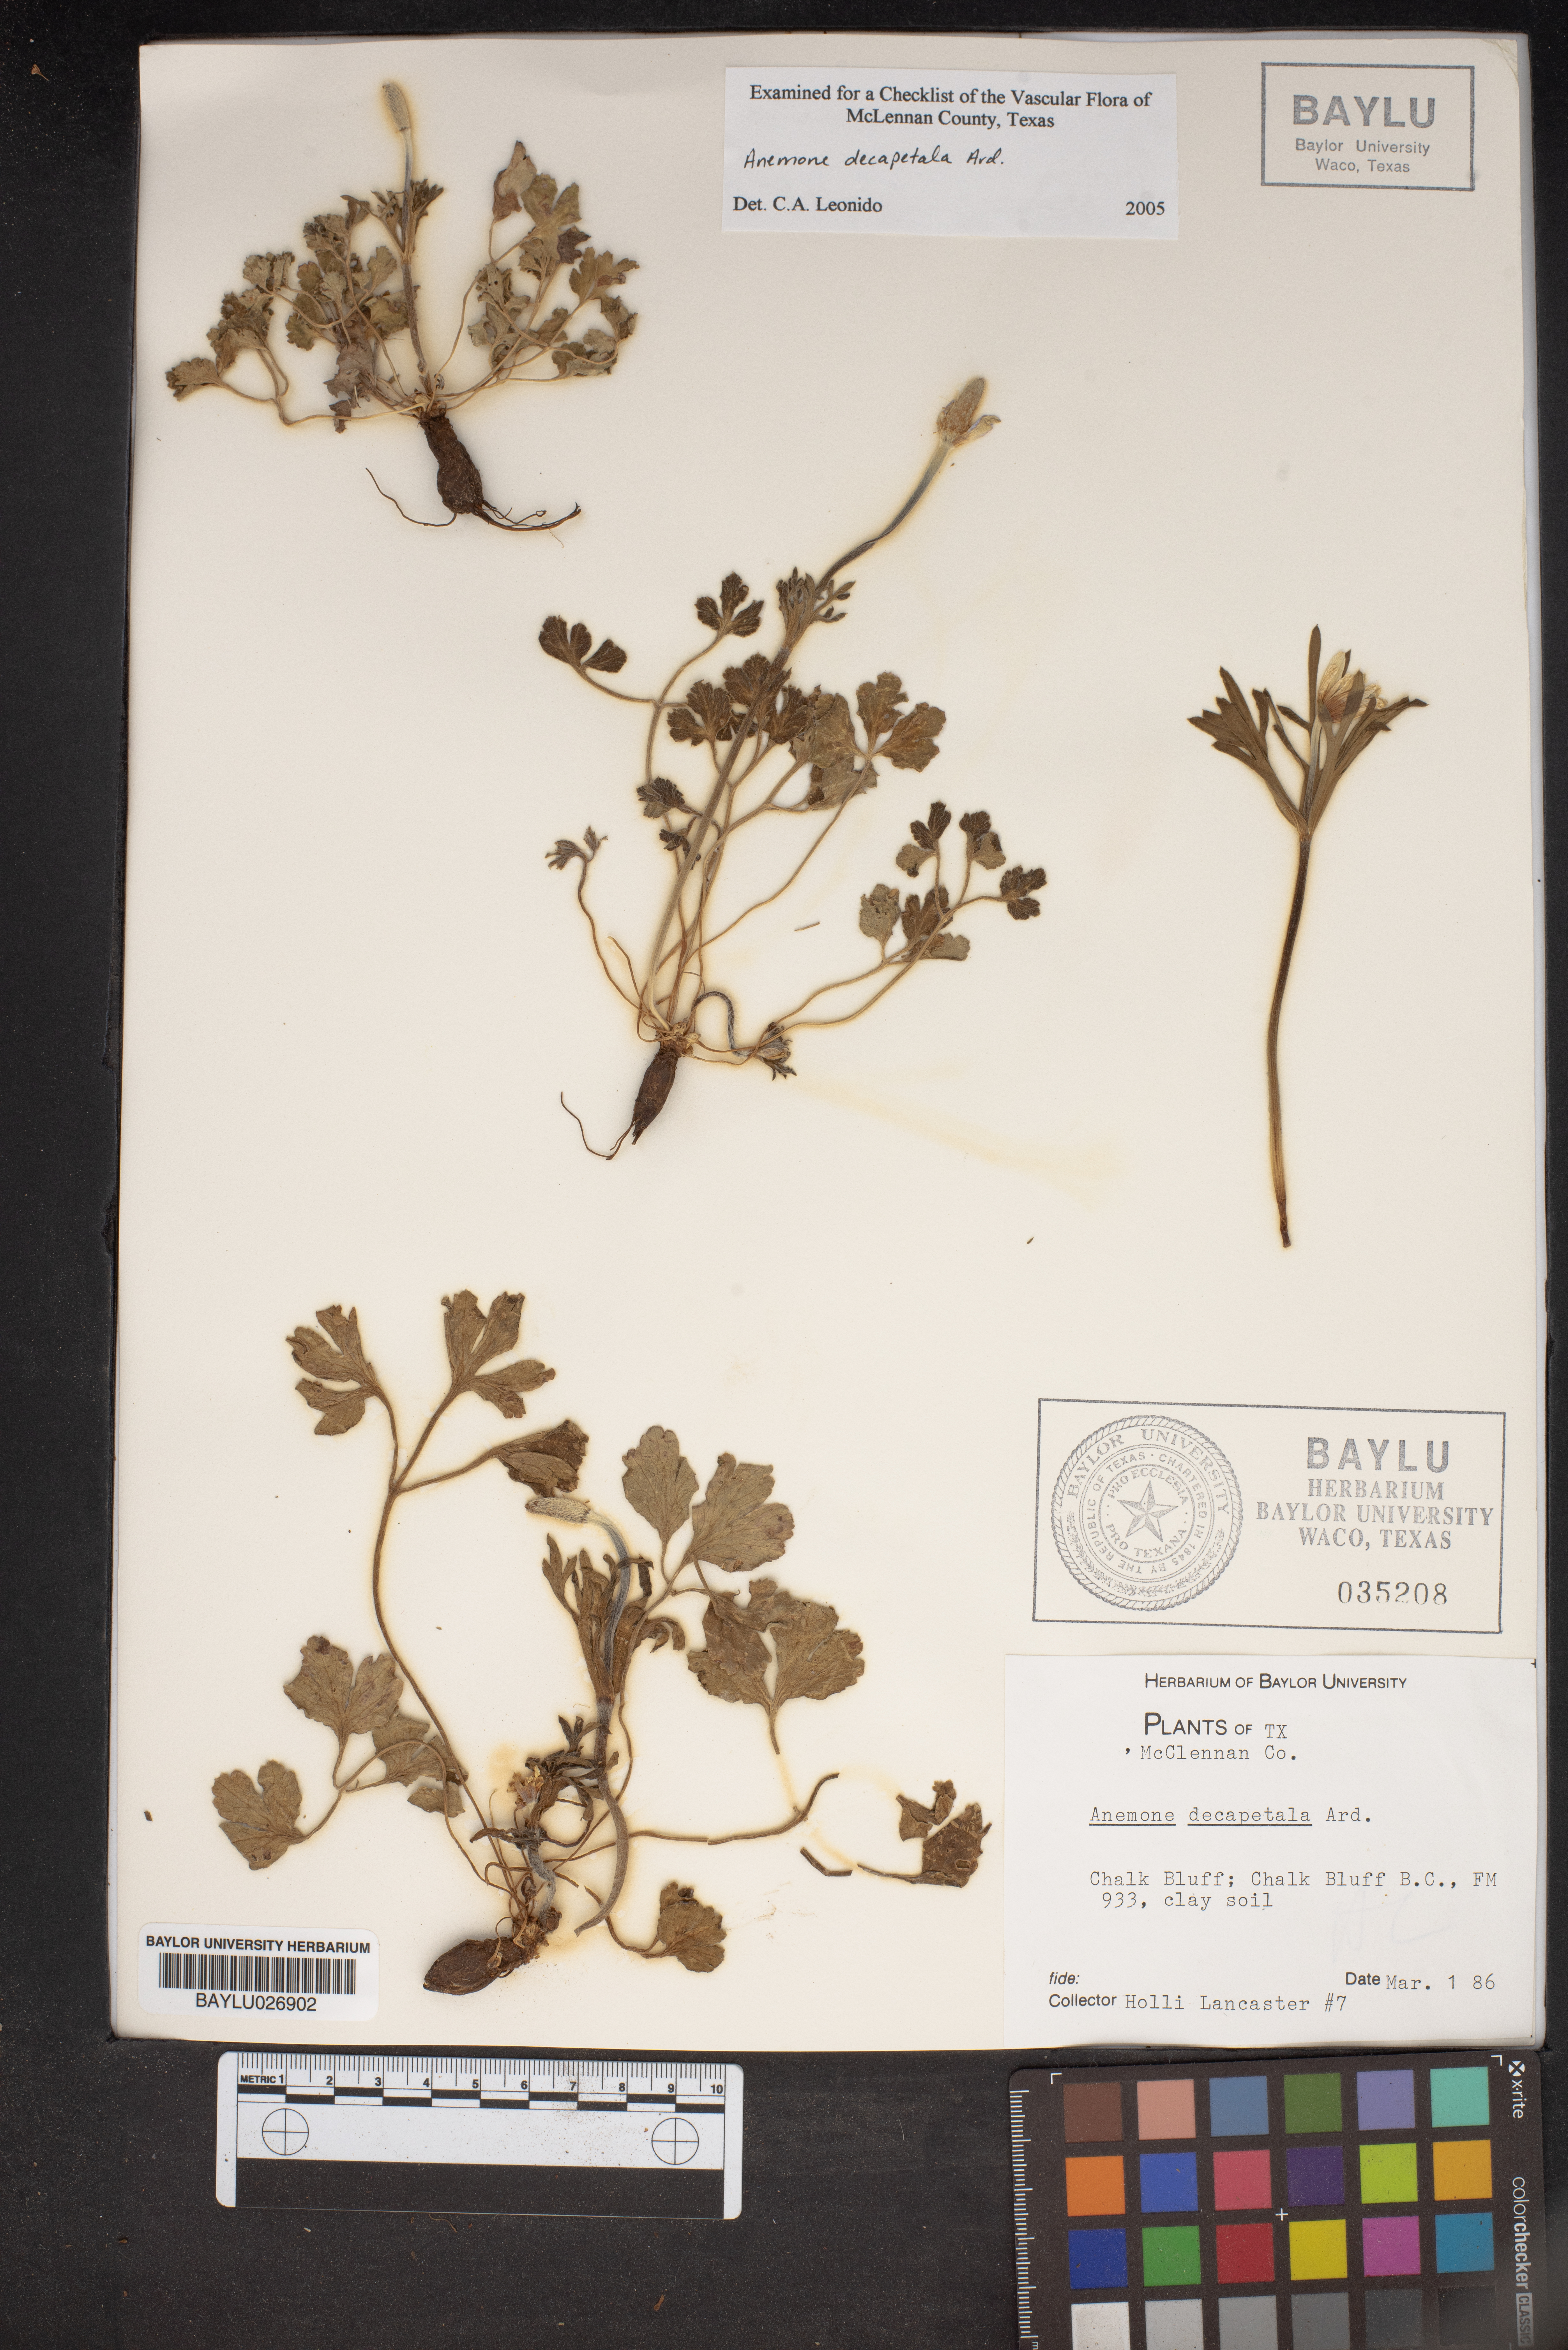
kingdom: Plantae
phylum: Tracheophyta
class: Magnoliopsida
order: Ranunculales
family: Ranunculaceae
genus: Anemone
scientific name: Anemone decapetala
